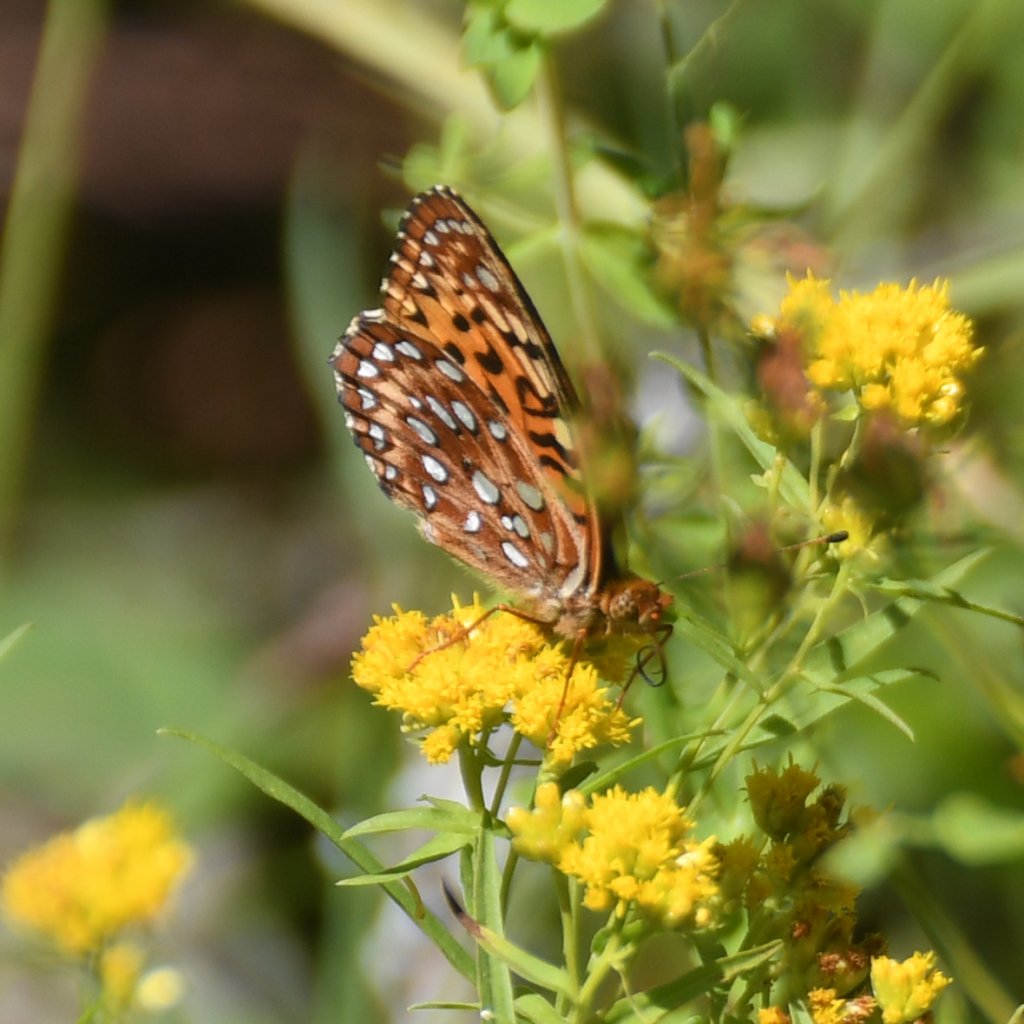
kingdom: Animalia
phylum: Arthropoda
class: Insecta
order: Lepidoptera
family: Nymphalidae
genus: Speyeria
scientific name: Speyeria aphrodite
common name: Aphrodite Fritillary
